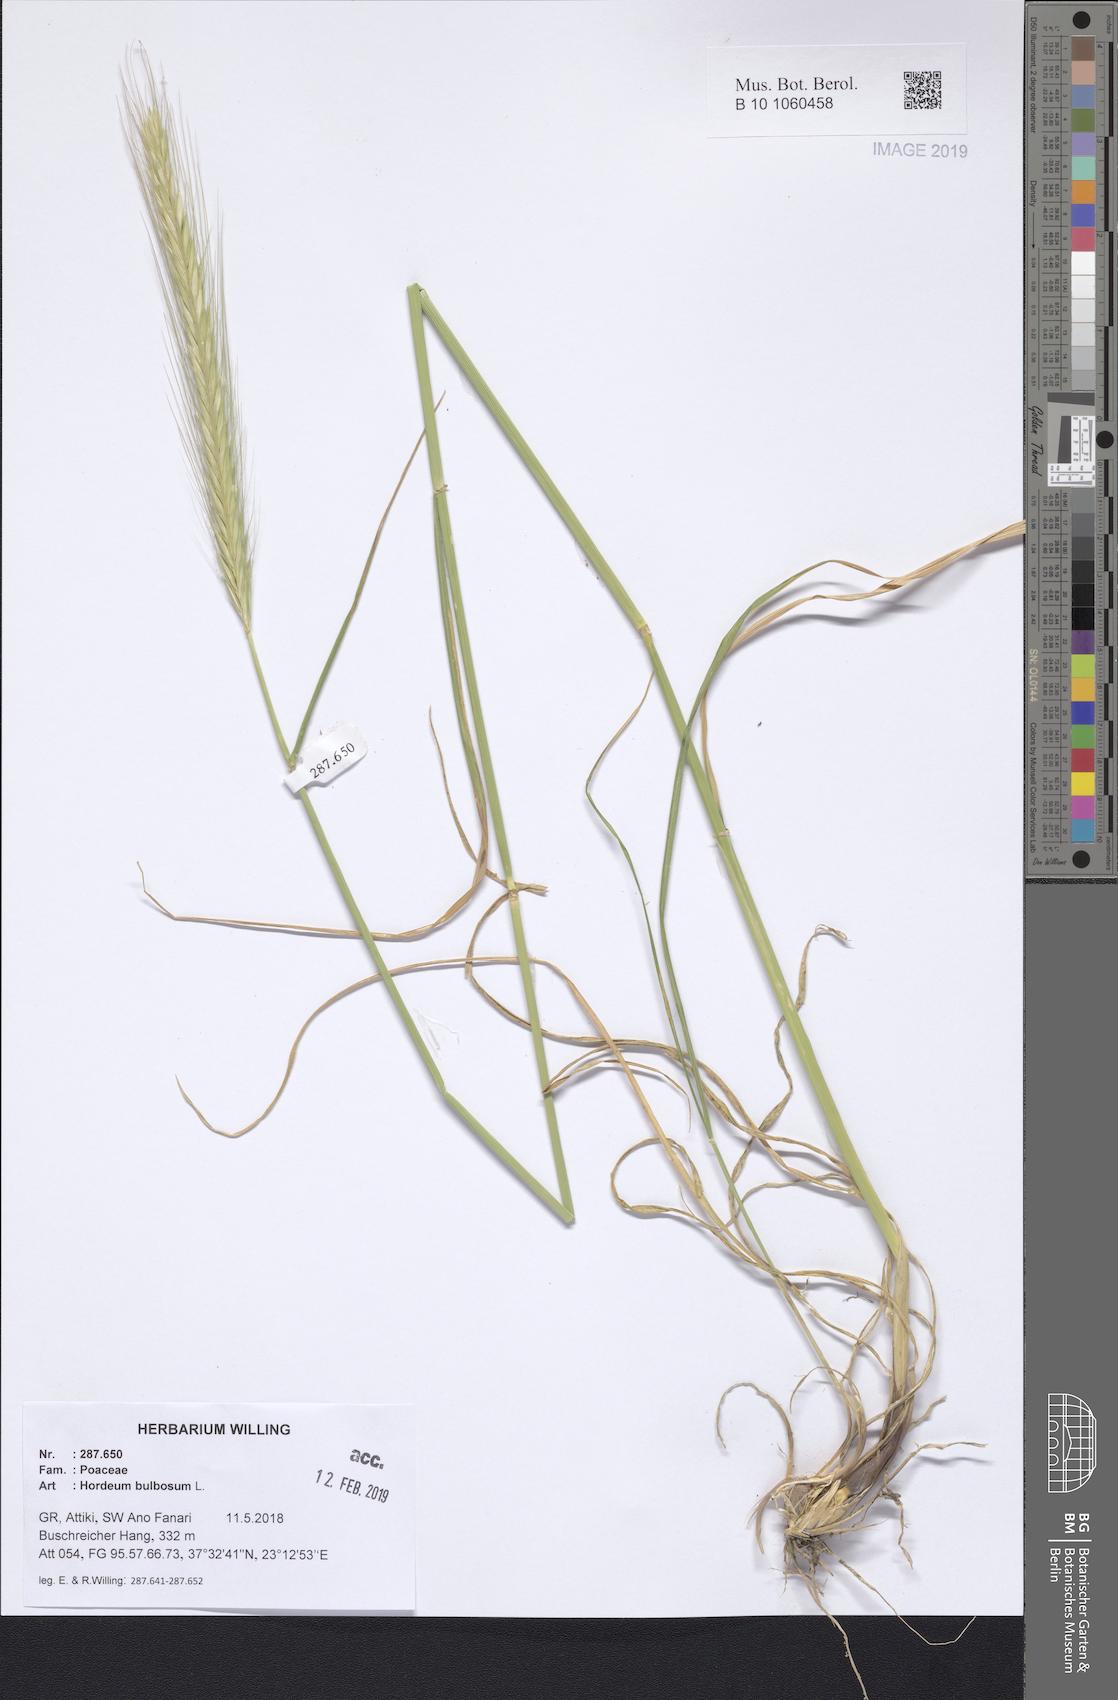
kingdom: Plantae
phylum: Tracheophyta
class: Liliopsida
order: Poales
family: Poaceae
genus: Hordeum
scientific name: Hordeum bulbosum
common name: Bulbous barley
